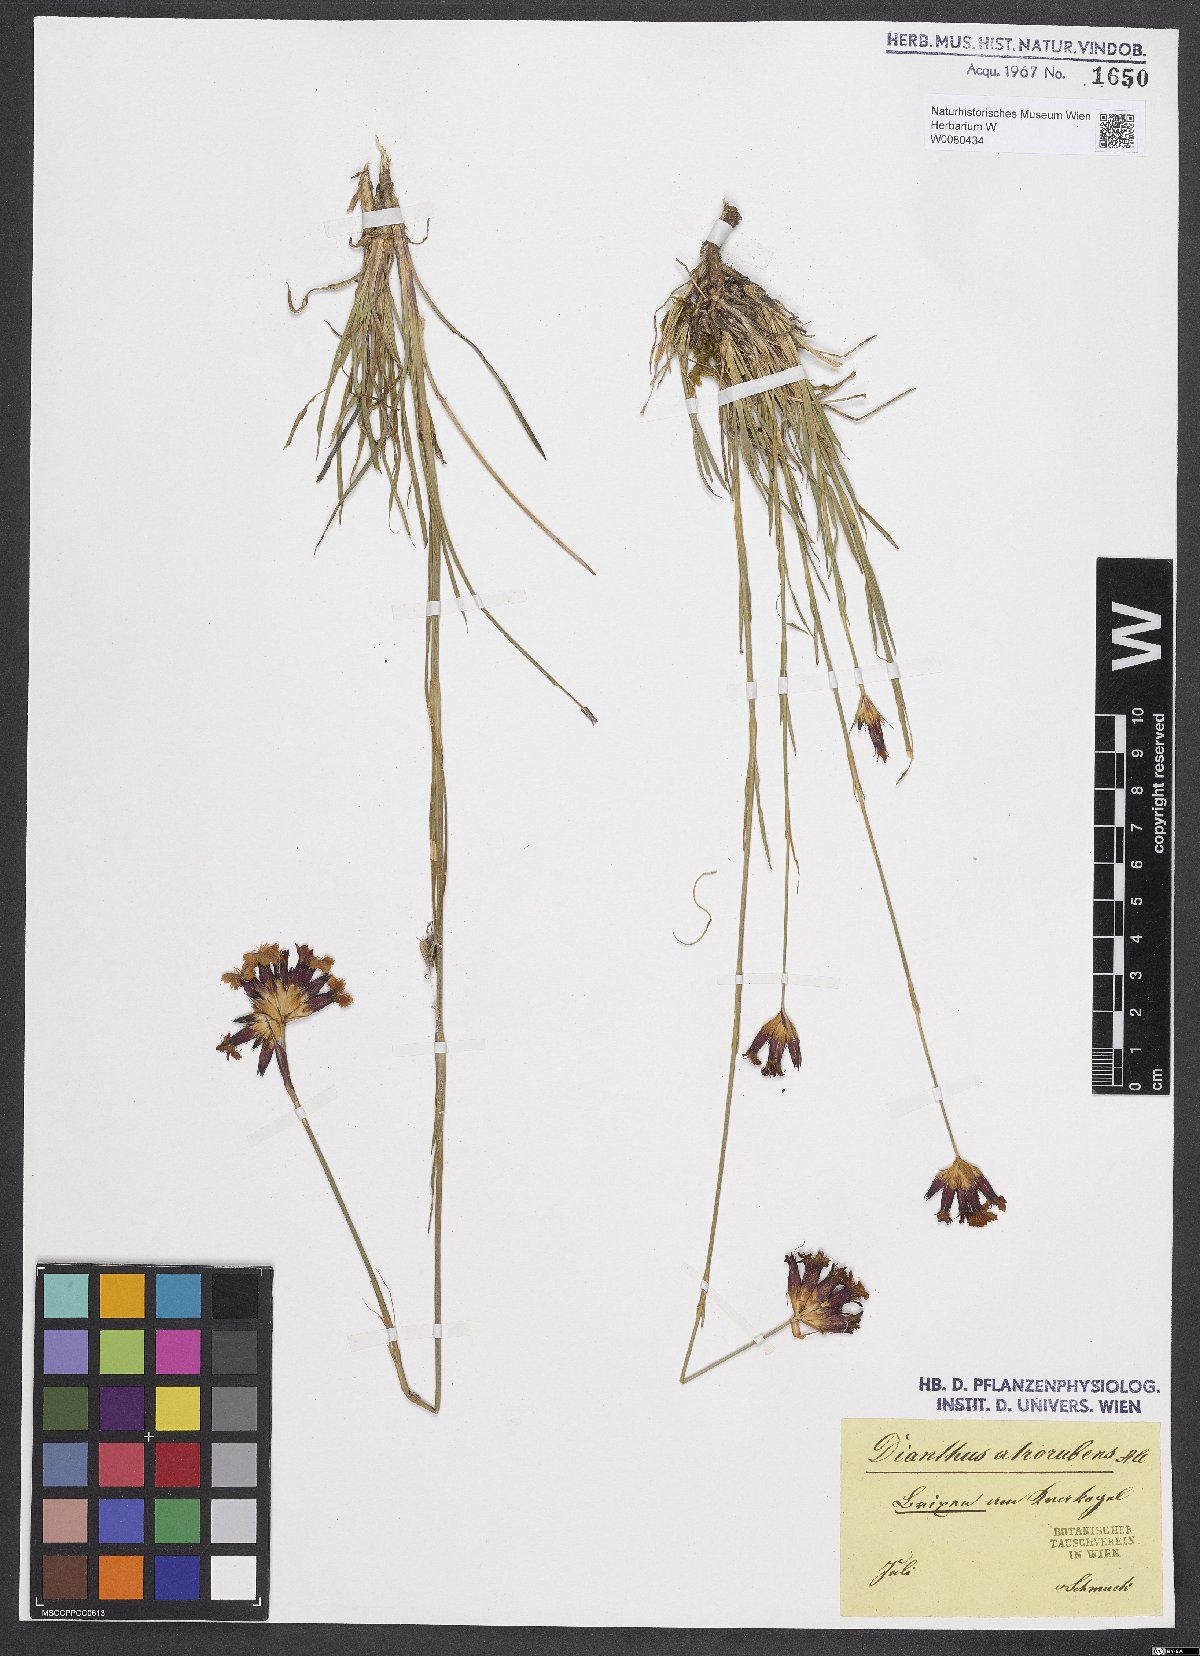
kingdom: Plantae
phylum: Tracheophyta
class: Magnoliopsida
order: Caryophyllales
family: Caryophyllaceae
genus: Dianthus
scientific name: Dianthus carthusianorum
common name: Carthusian pink
